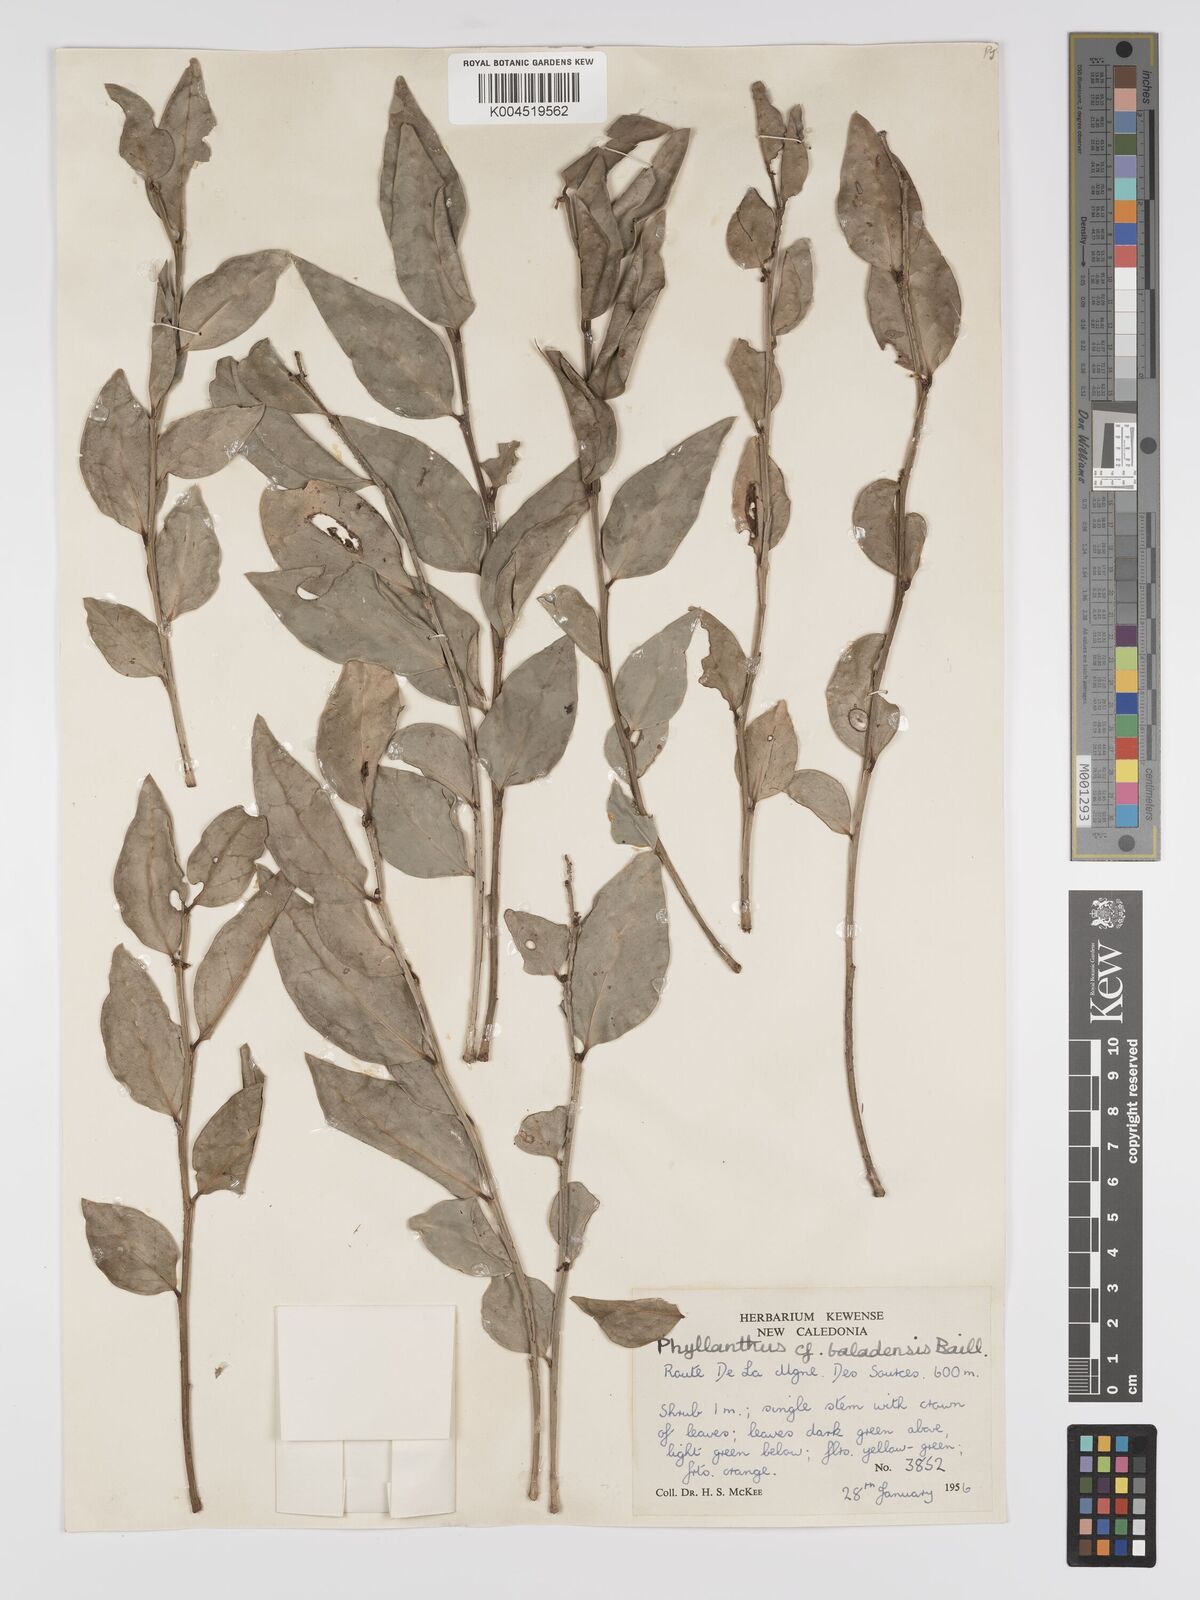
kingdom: Plantae
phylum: Tracheophyta
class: Magnoliopsida
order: Malpighiales
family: Phyllanthaceae
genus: Phyllanthus
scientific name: Phyllanthus baladensis
